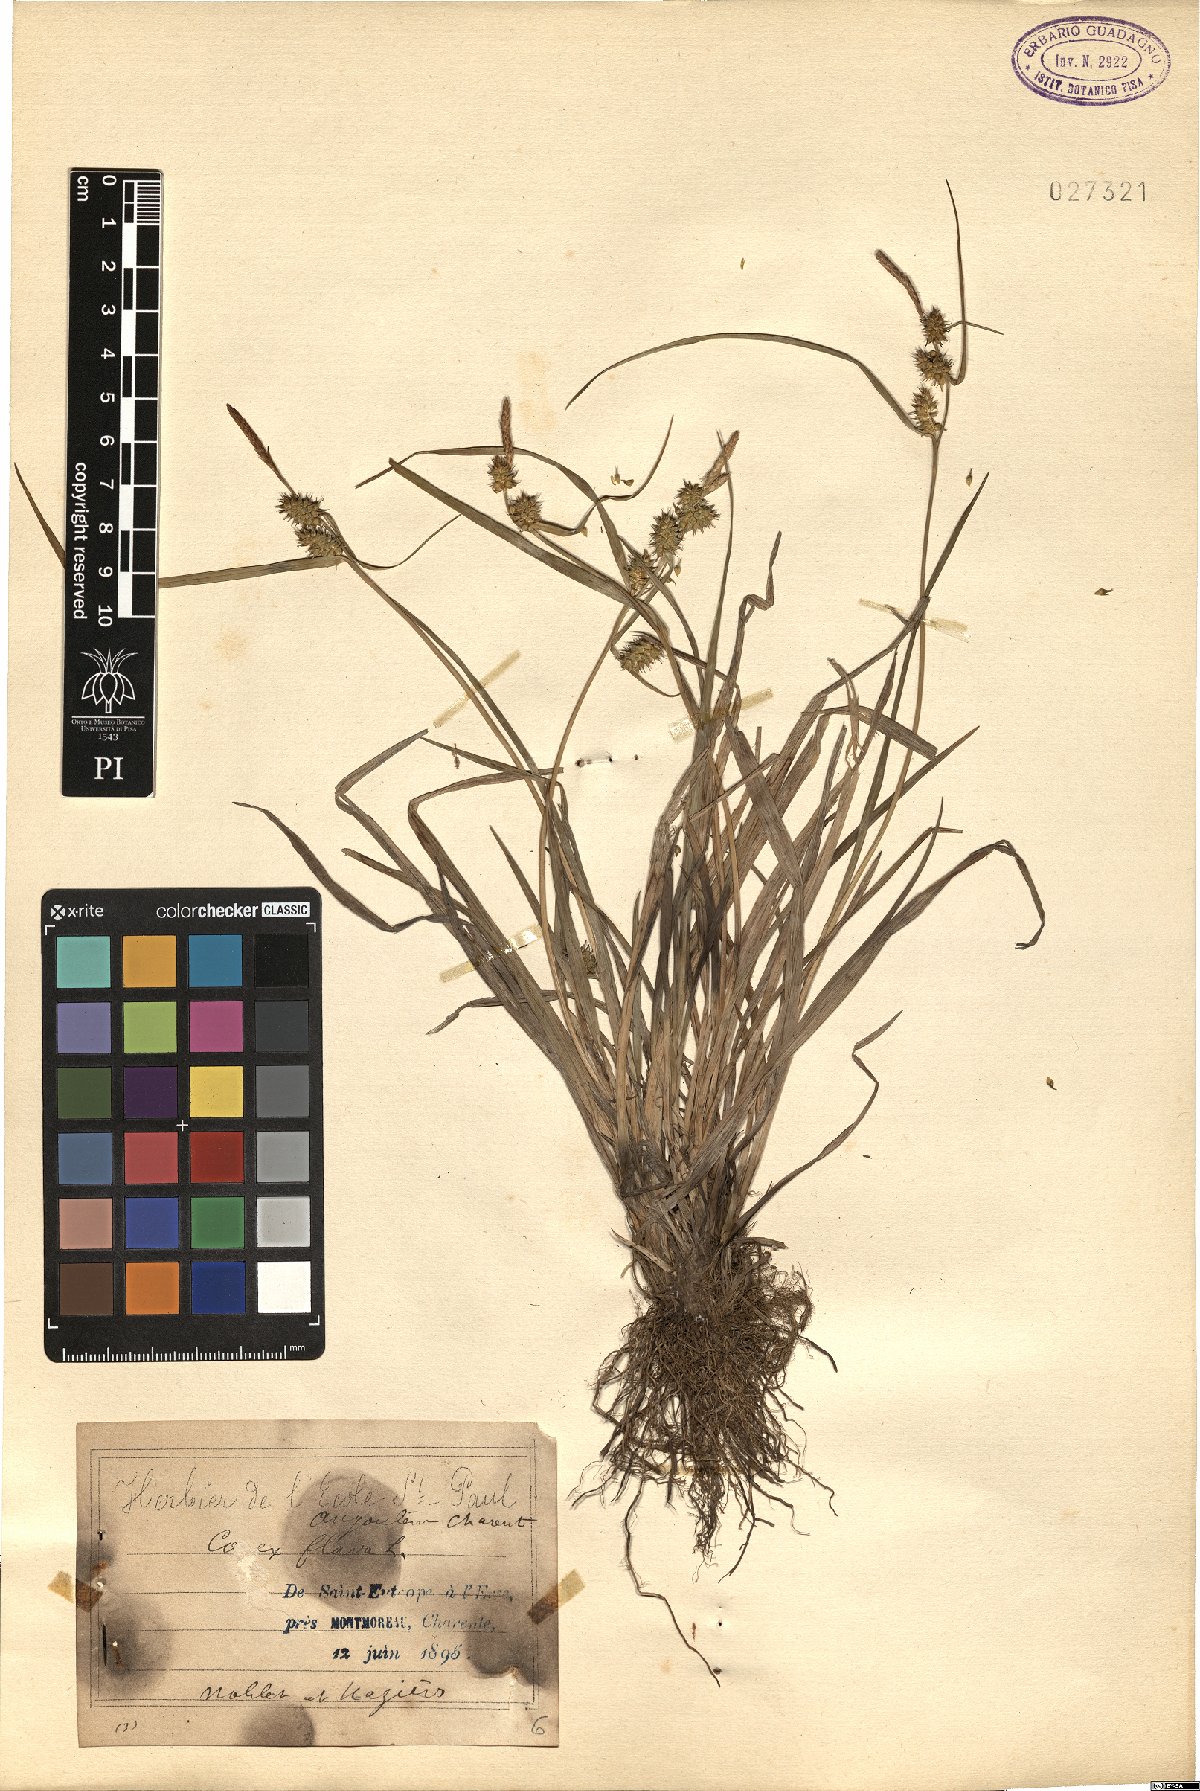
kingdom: Plantae
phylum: Tracheophyta
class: Liliopsida
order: Poales
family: Cyperaceae
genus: Carex
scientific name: Carex flava
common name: Large yellow-sedge
